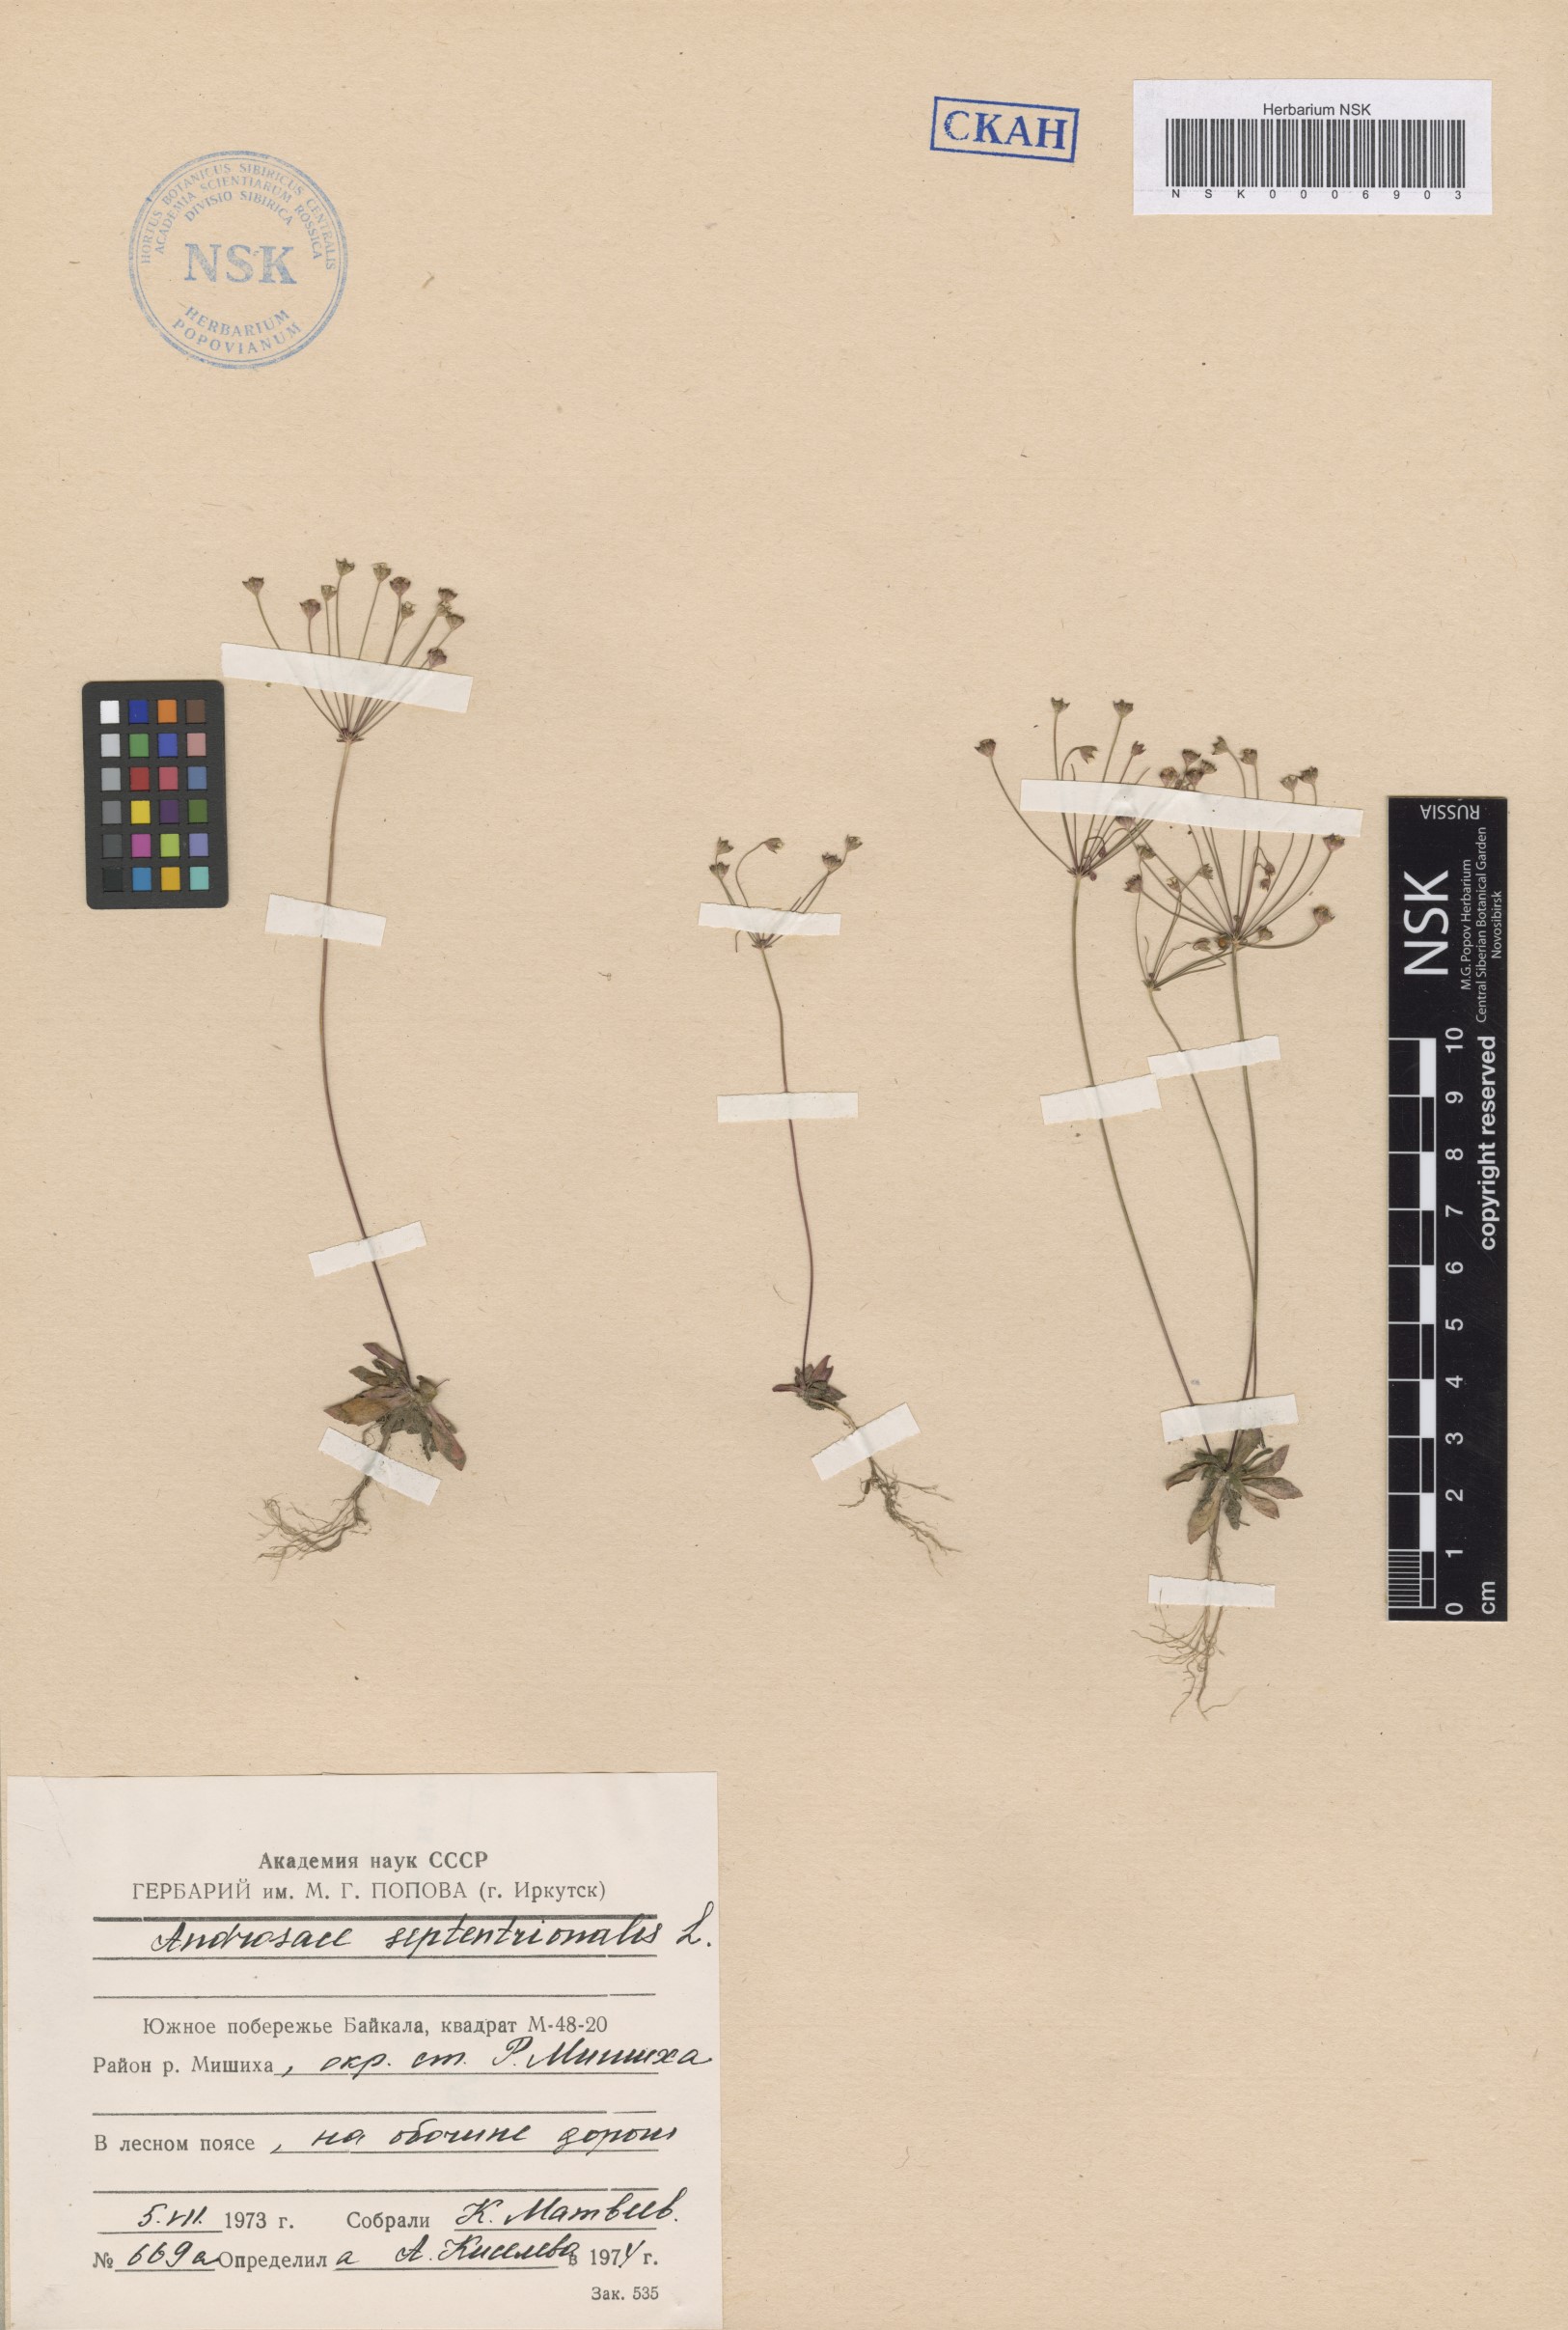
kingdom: Plantae
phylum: Tracheophyta
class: Magnoliopsida
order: Ericales
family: Primulaceae
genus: Androsace
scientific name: Androsace septentrionalis
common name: Hairy northern fairy-candelabra
